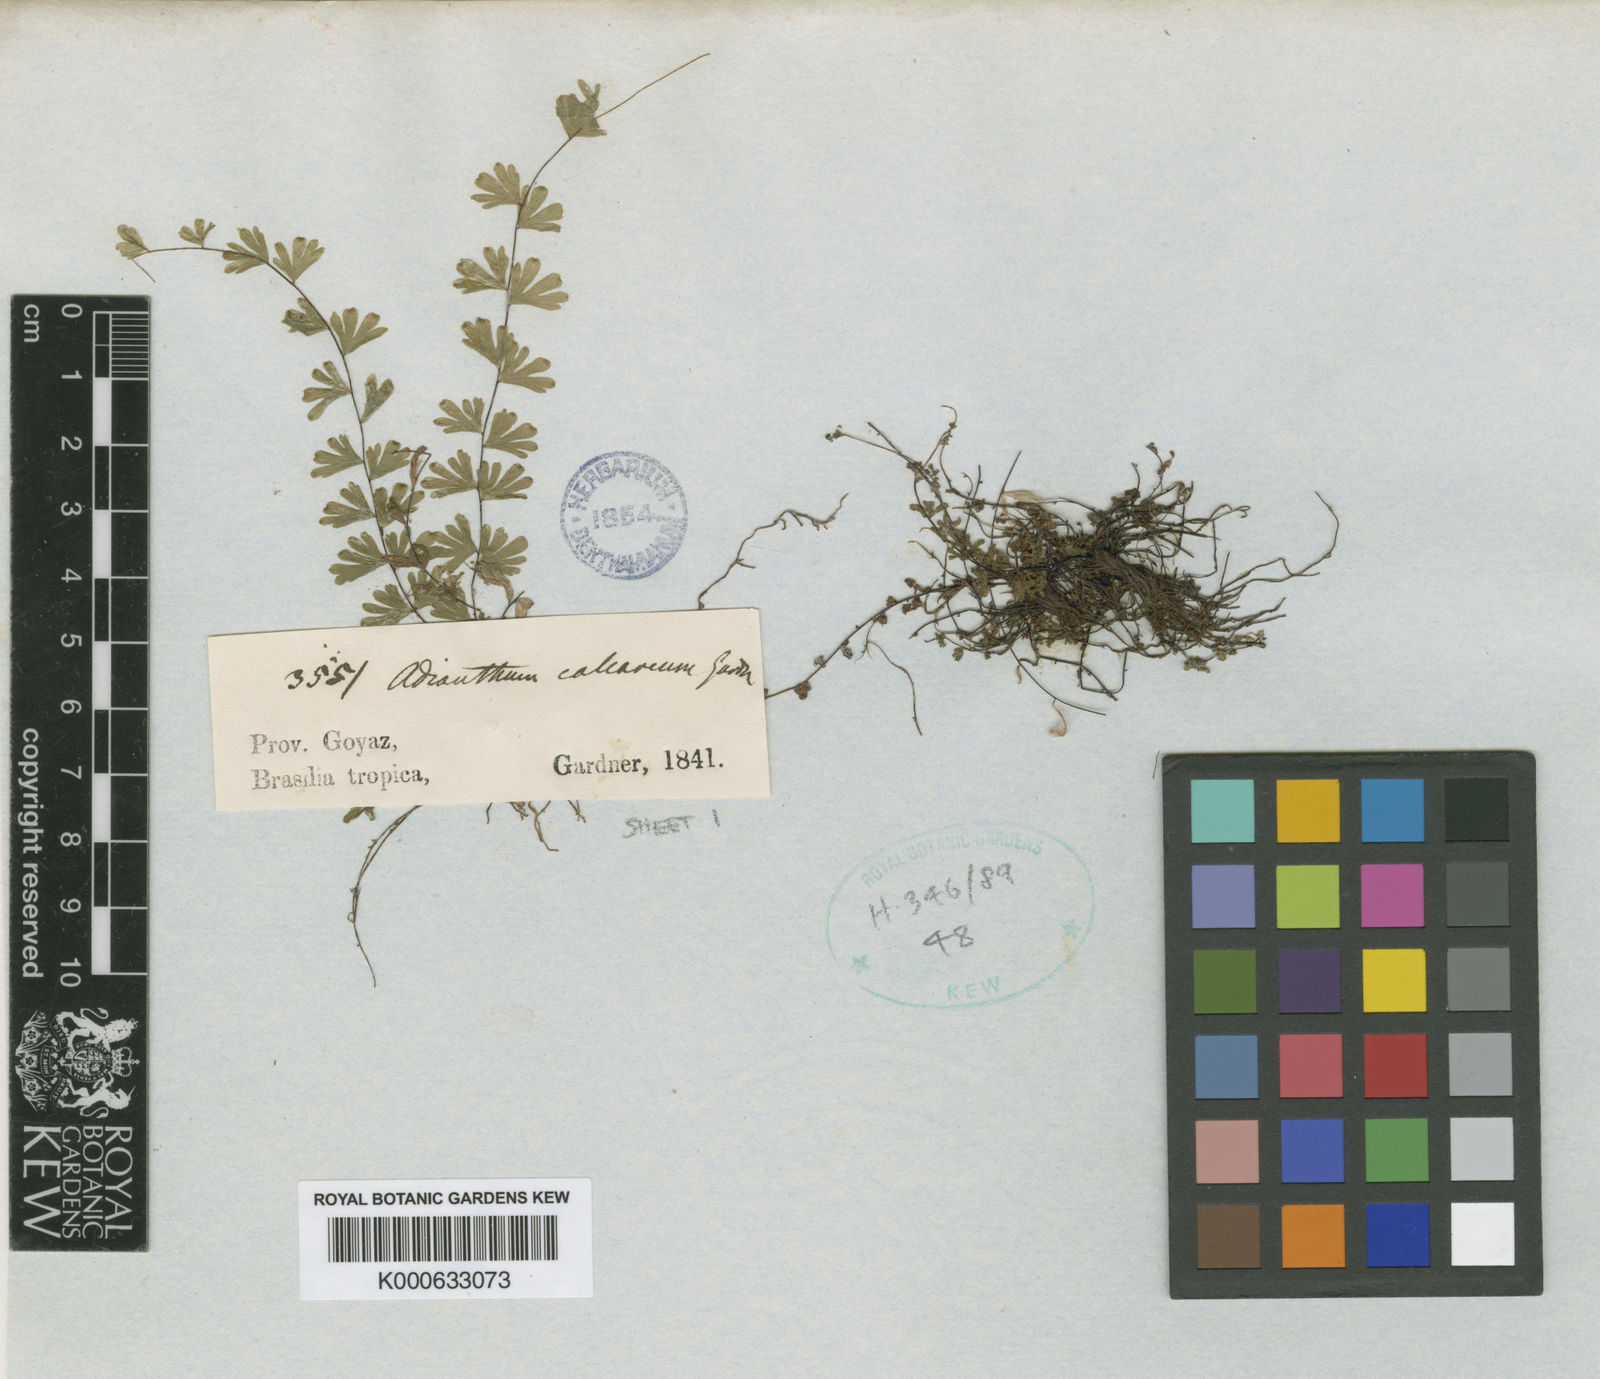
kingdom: Plantae
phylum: Tracheophyta
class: Polypodiopsida
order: Polypodiales
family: Pteridaceae
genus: Adiantum
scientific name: Adiantum calcareum
